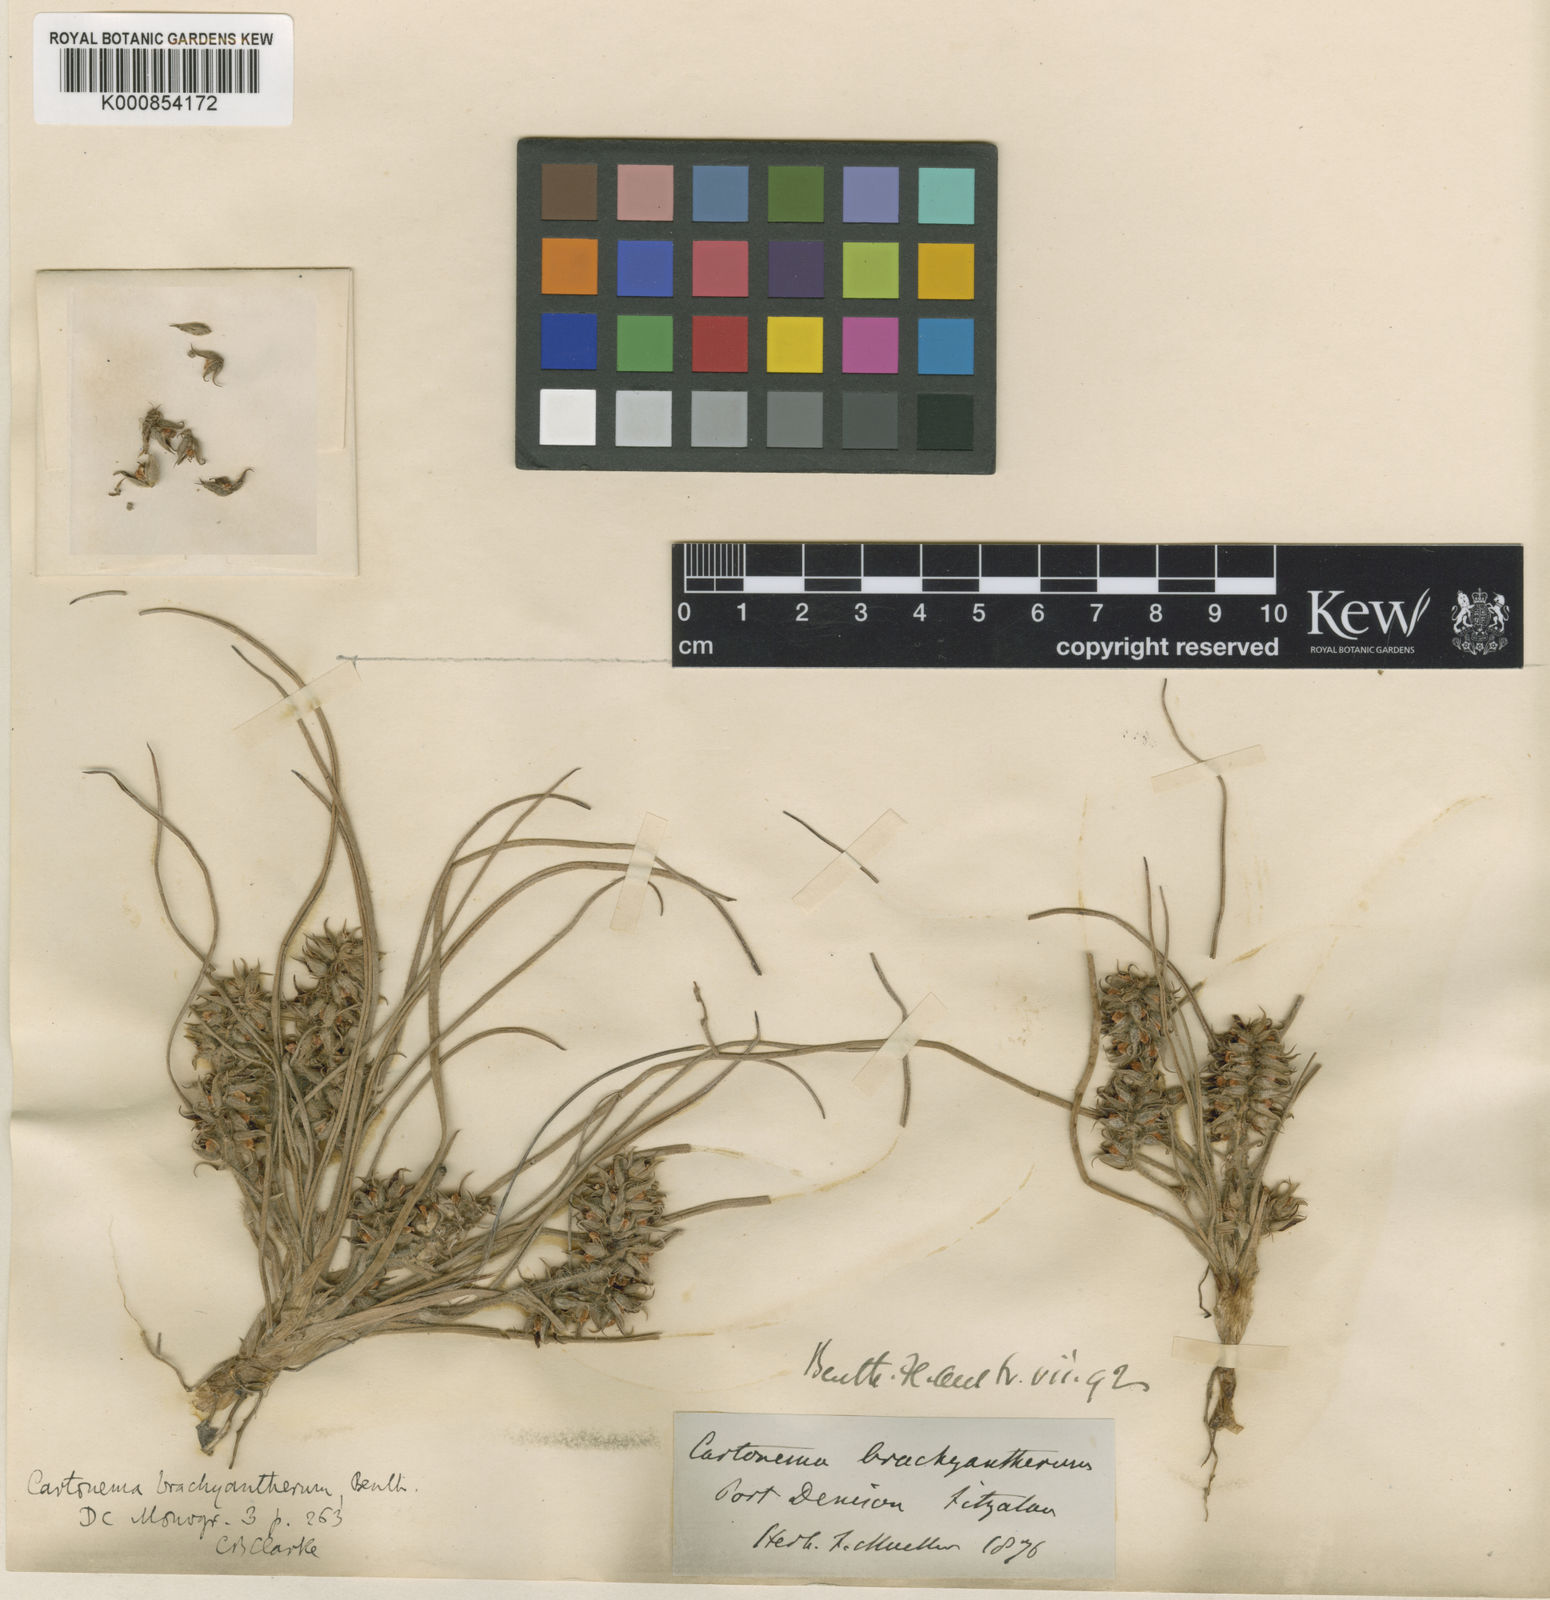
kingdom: Plantae
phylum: Tracheophyta
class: Liliopsida
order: Commelinales
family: Commelinaceae
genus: Cartonema
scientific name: Cartonema brachyantherum
